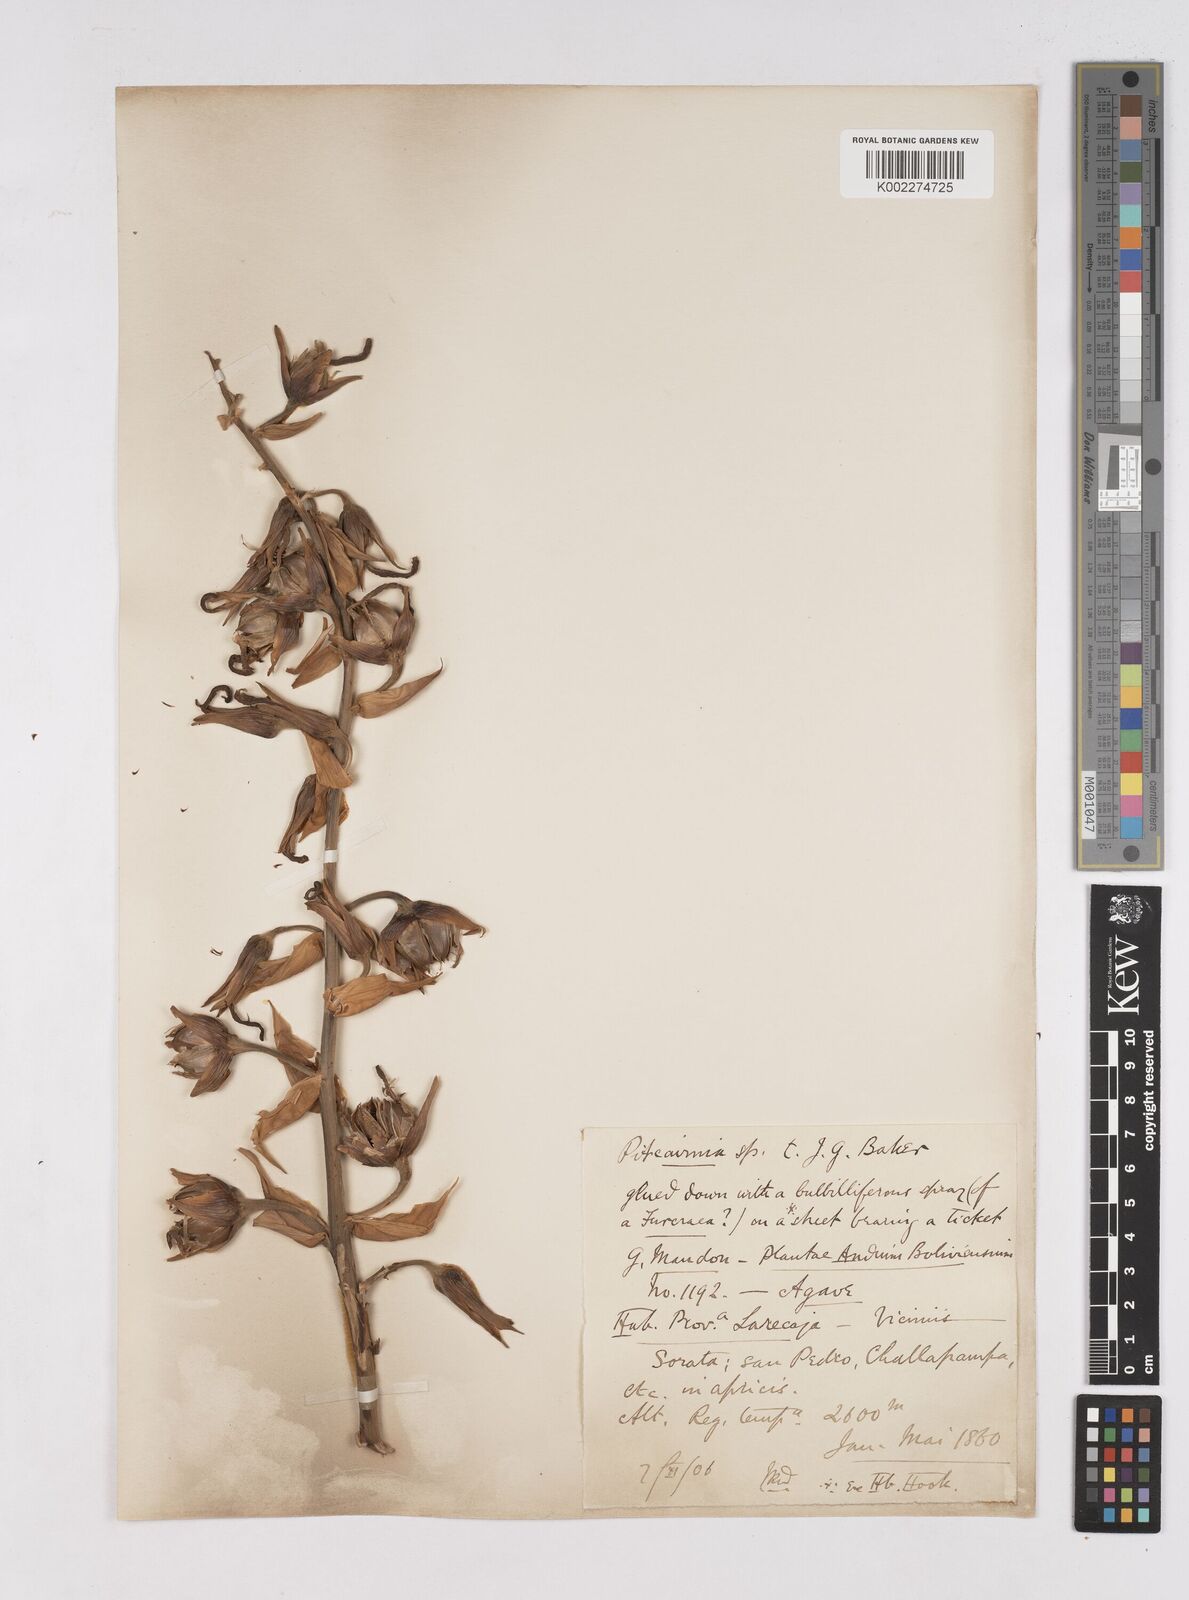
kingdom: Plantae
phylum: Tracheophyta
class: Liliopsida
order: Poales
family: Bromeliaceae
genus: Puya
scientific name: Puya meziana
